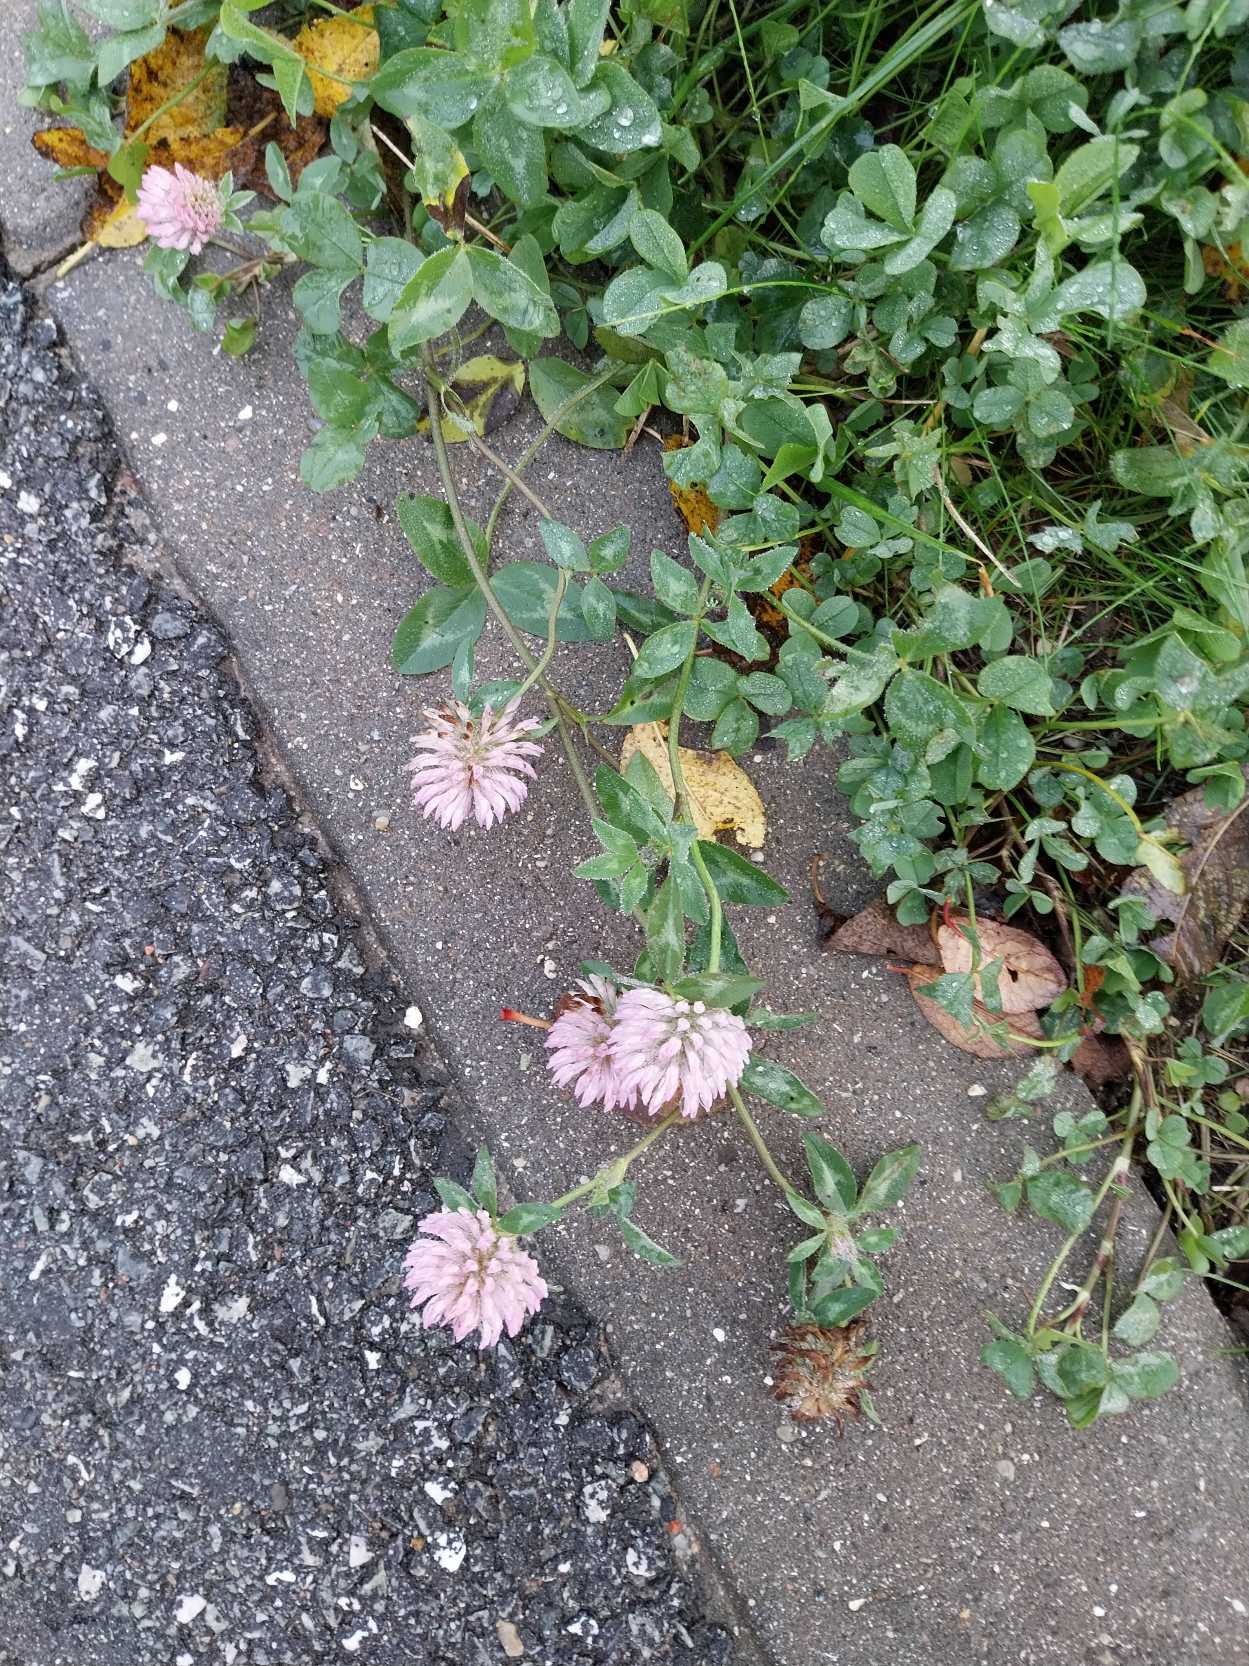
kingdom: Plantae
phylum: Tracheophyta
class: Magnoliopsida
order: Fabales
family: Fabaceae
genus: Trifolium
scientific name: Trifolium pratense
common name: Rød-kløver
